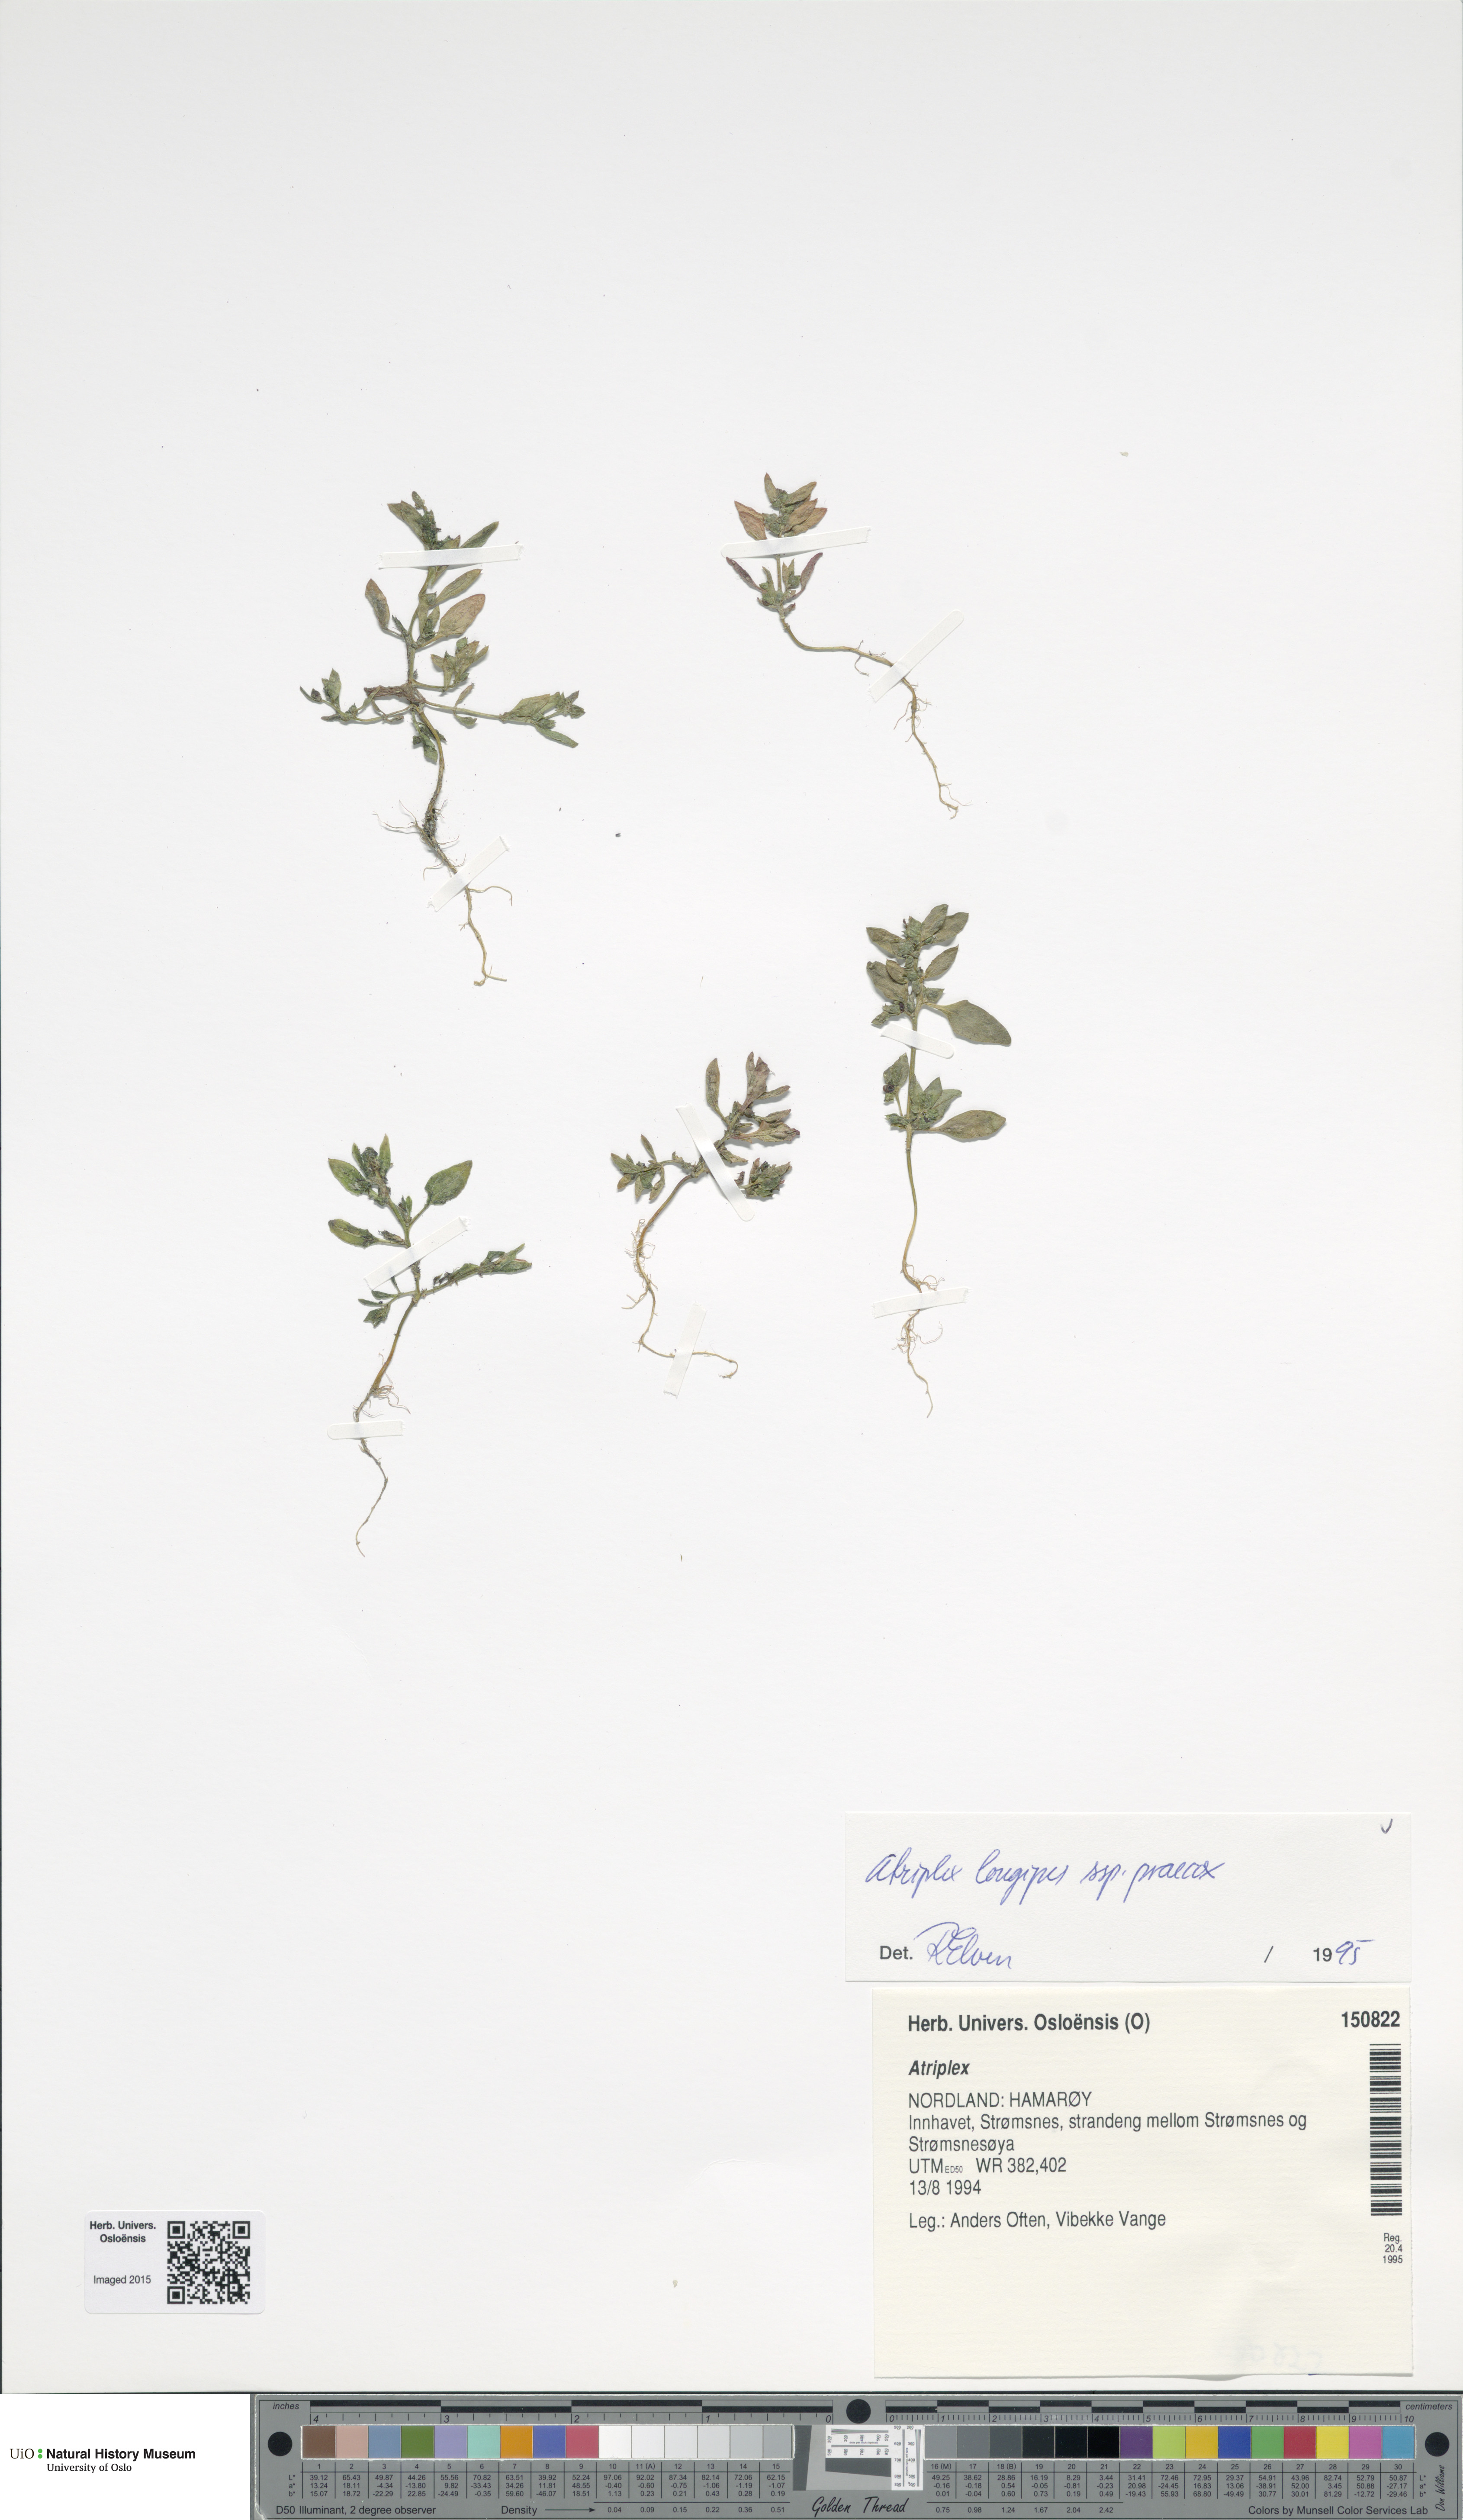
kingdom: Plantae
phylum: Tracheophyta
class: Magnoliopsida
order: Caryophyllales
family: Amaranthaceae
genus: Atriplex
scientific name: Atriplex praecox
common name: Early orache
